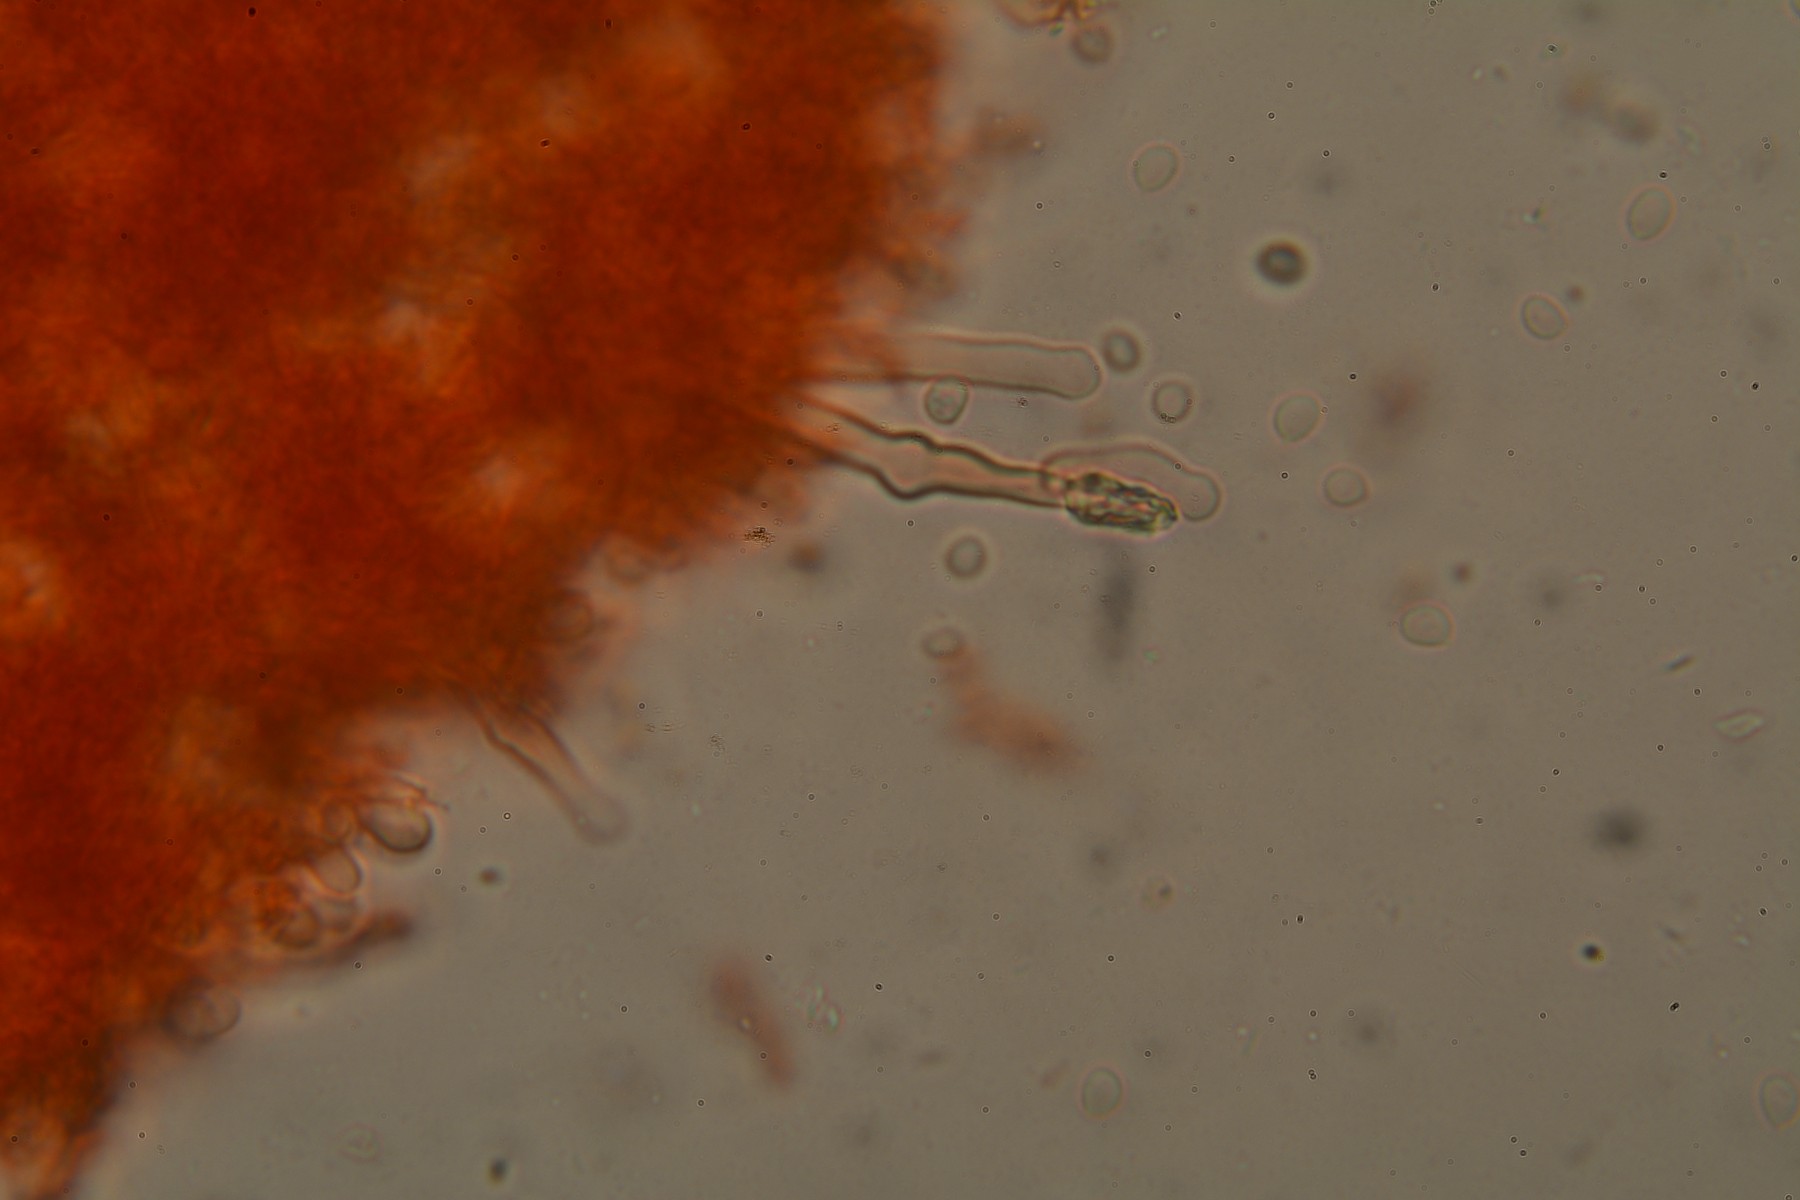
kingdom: Fungi
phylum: Basidiomycota
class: Agaricomycetes
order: Hymenochaetales
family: Hyphodontiaceae
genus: Hyphodontia
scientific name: Hyphodontia alutaria
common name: flaskerenser-nålehinde
